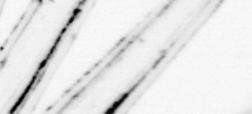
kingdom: Animalia
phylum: Chordata
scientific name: Chordata
